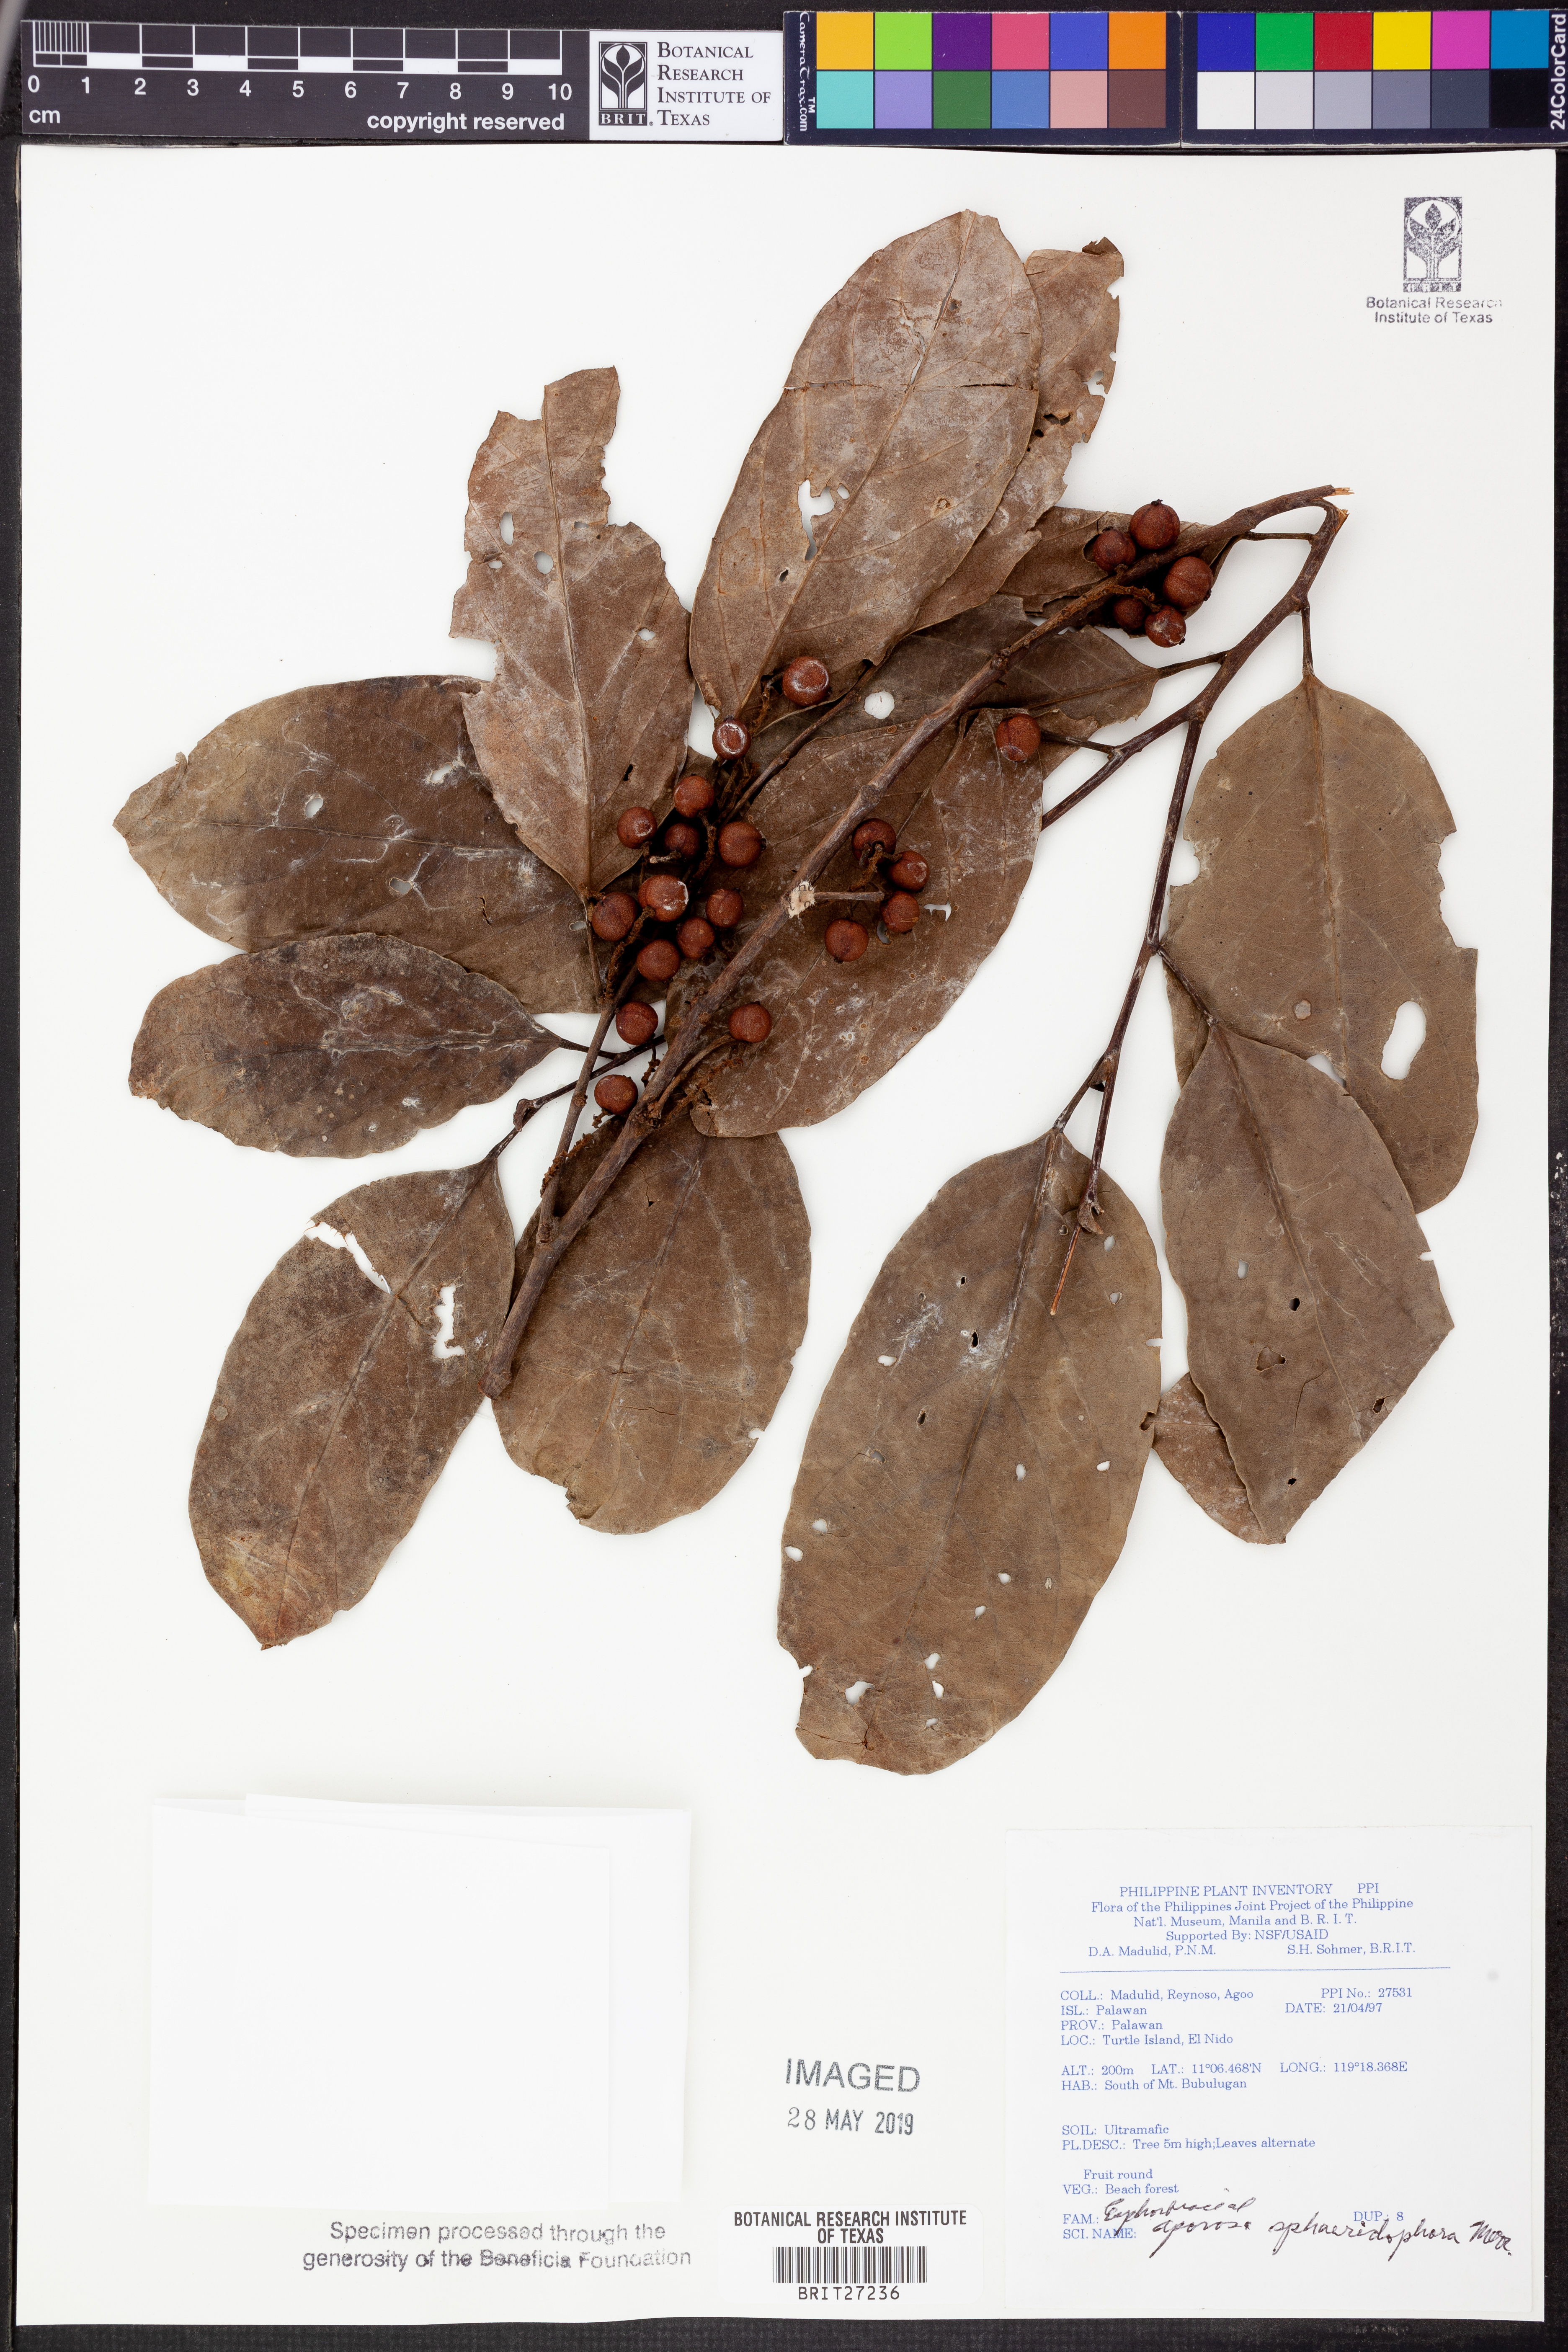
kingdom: Plantae
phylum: Tracheophyta
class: Magnoliopsida
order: Malpighiales
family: Phyllanthaceae
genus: Aporosa
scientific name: Aporosa sphaeridiophora
